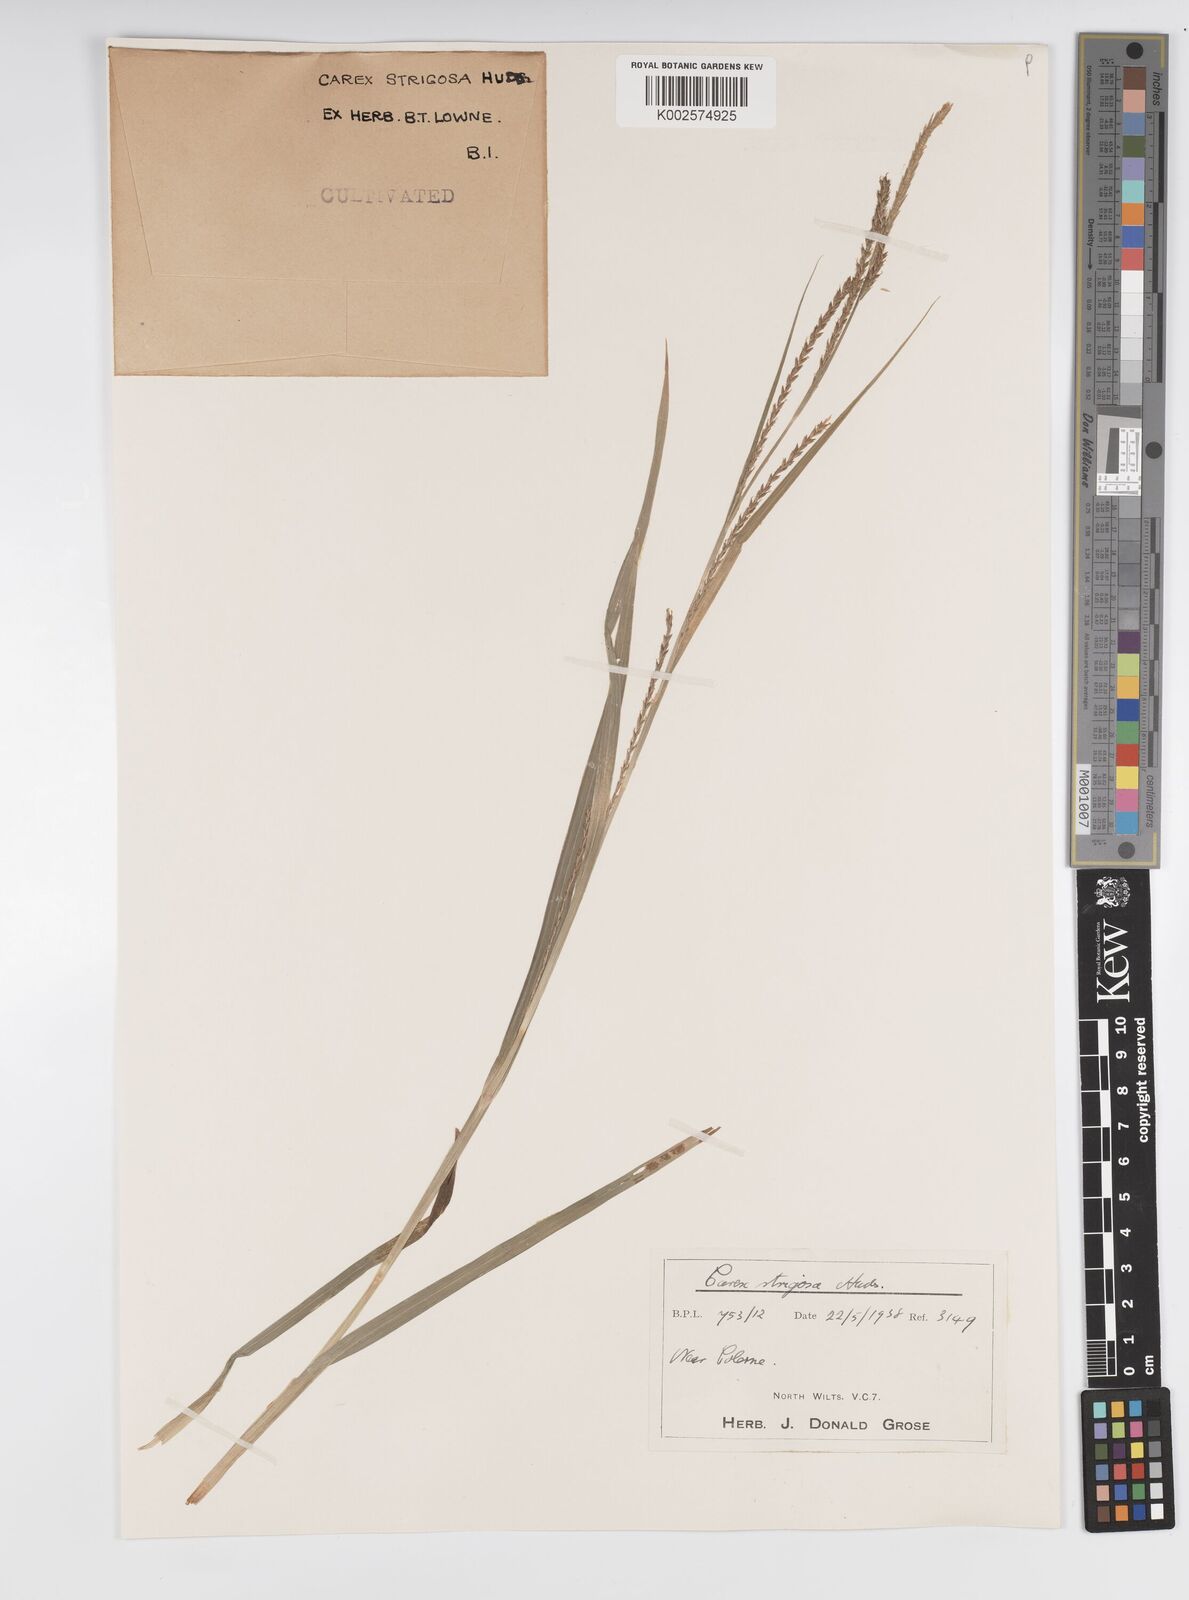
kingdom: Plantae
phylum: Tracheophyta
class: Liliopsida
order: Poales
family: Cyperaceae
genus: Carex
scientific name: Carex strigosa
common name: Thin-spiked wood-sedge
